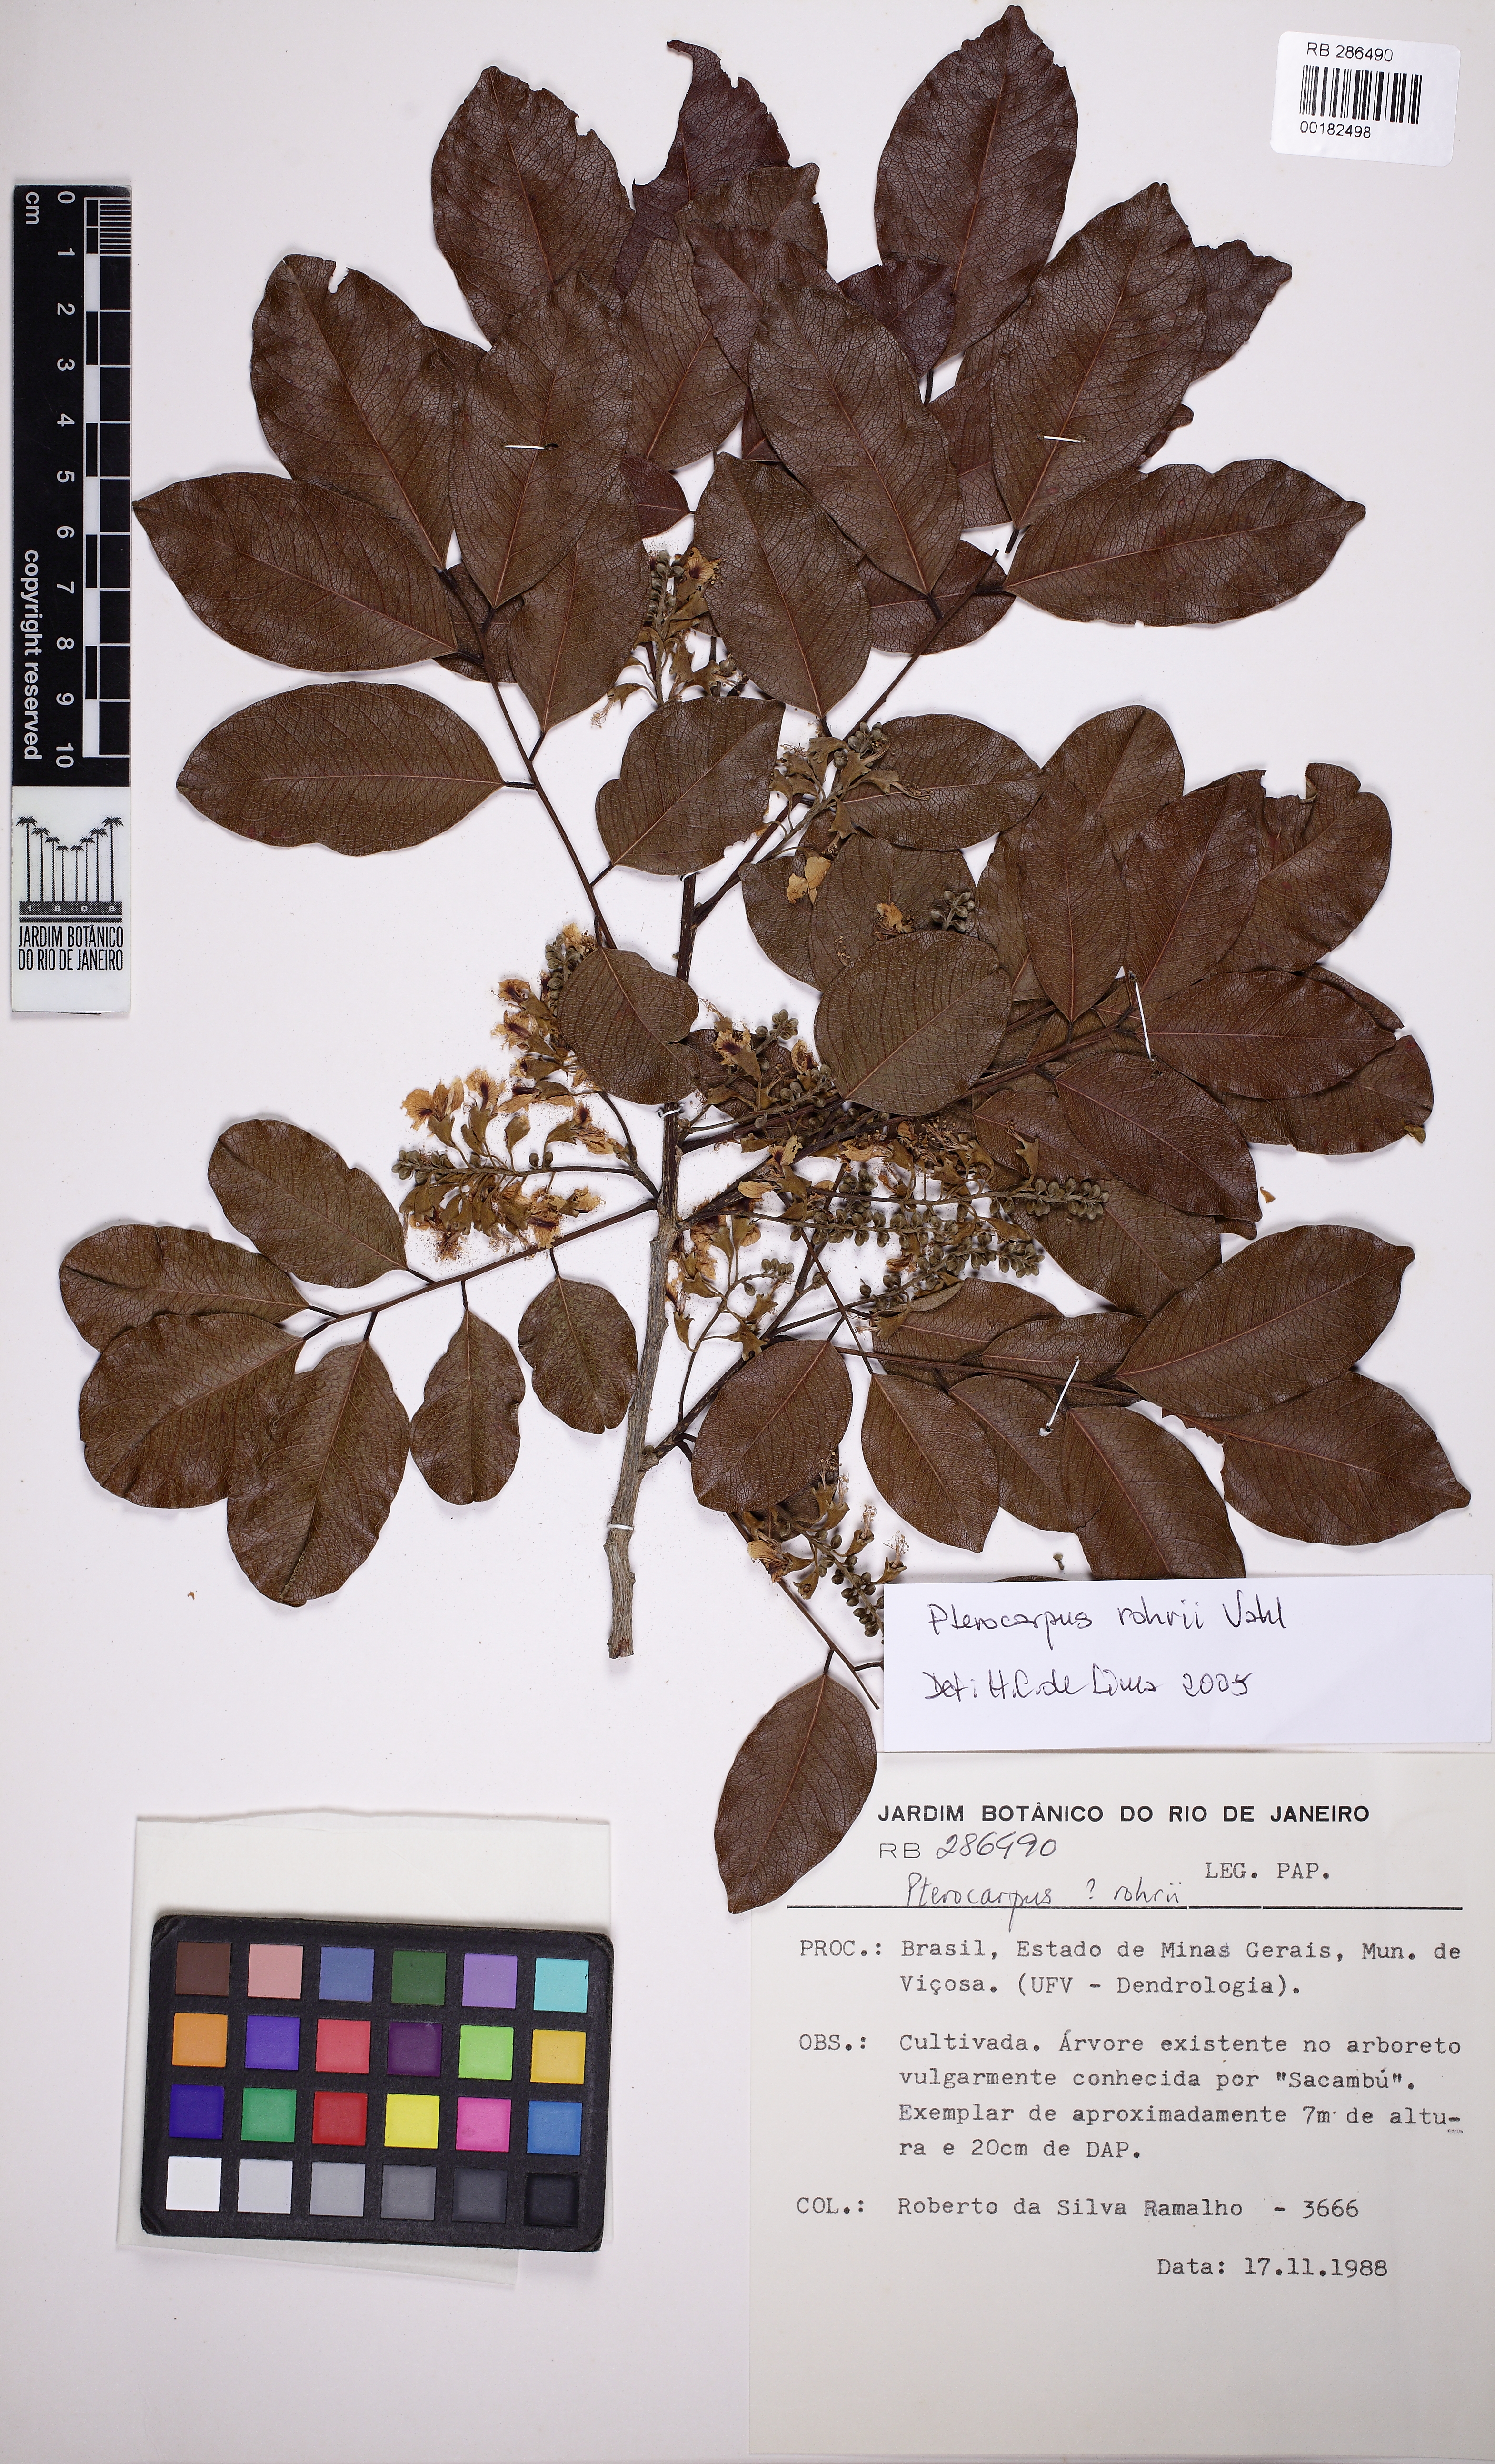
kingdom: Plantae
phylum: Tracheophyta
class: Magnoliopsida
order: Fabales
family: Fabaceae
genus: Pterocarpus
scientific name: Pterocarpus rohrii
